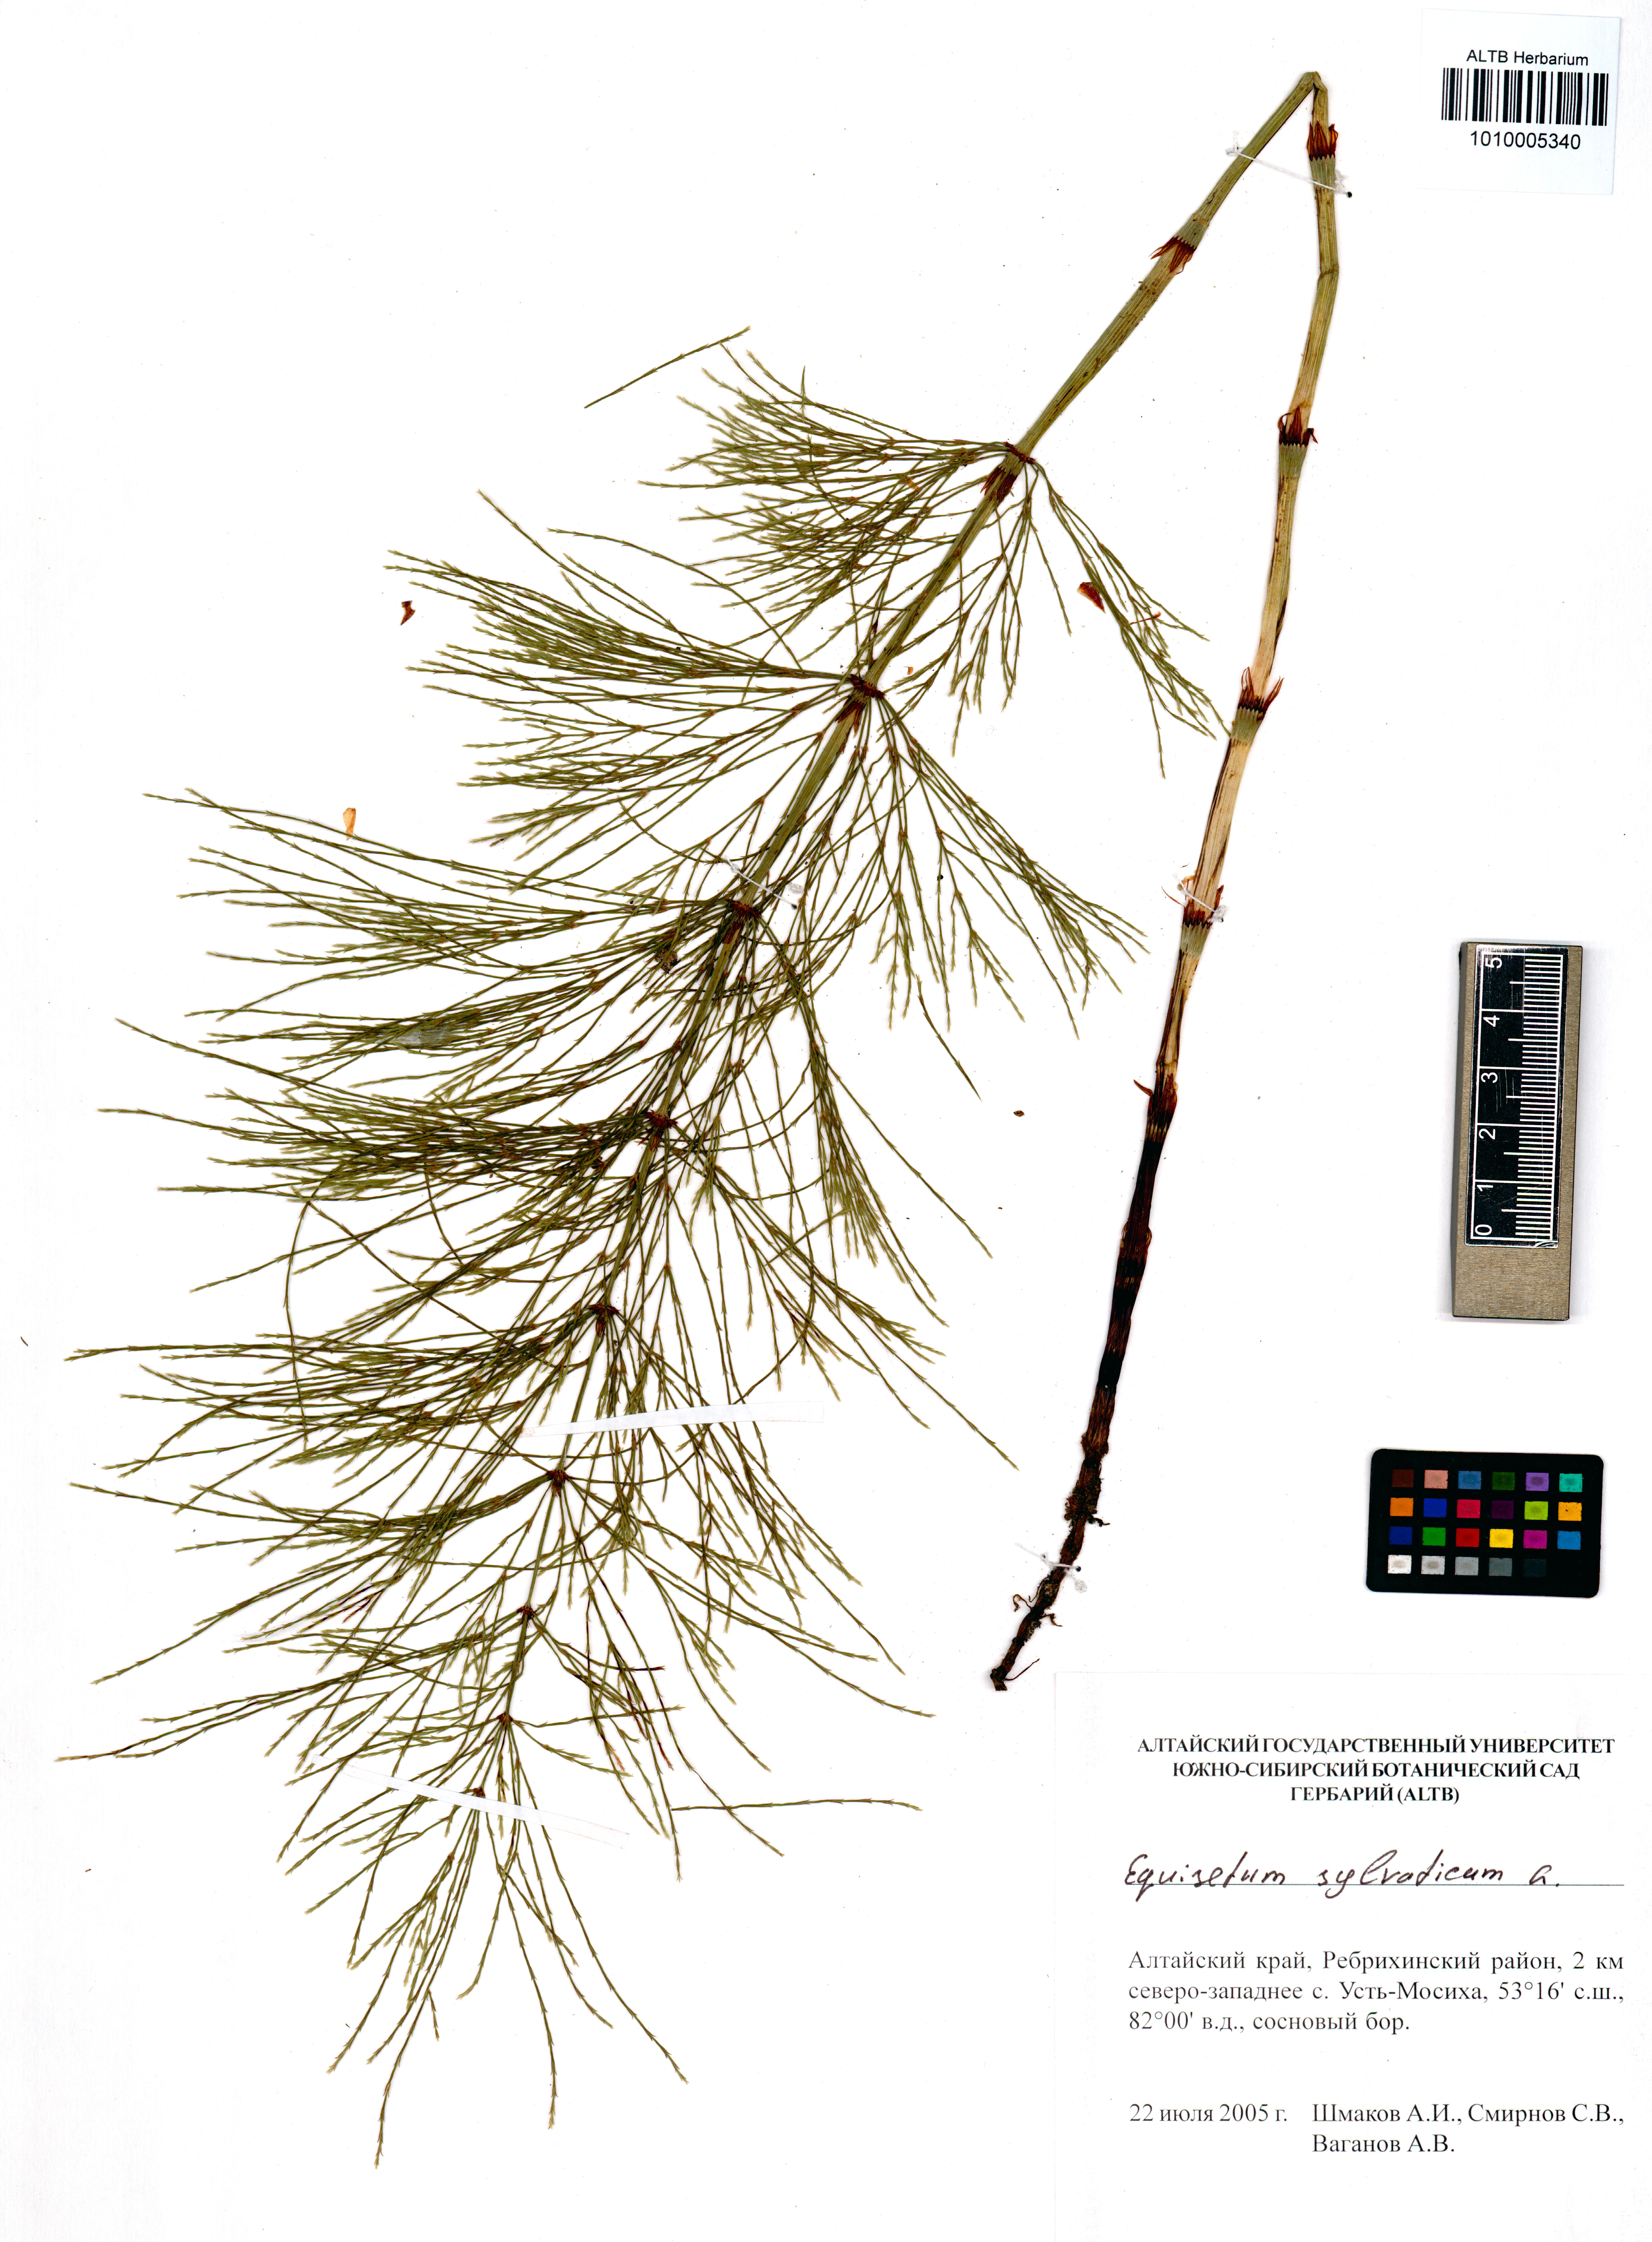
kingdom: Plantae
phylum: Tracheophyta
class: Polypodiopsida
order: Equisetales
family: Equisetaceae
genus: Equisetum
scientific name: Equisetum sylvaticum
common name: Wood horsetail
